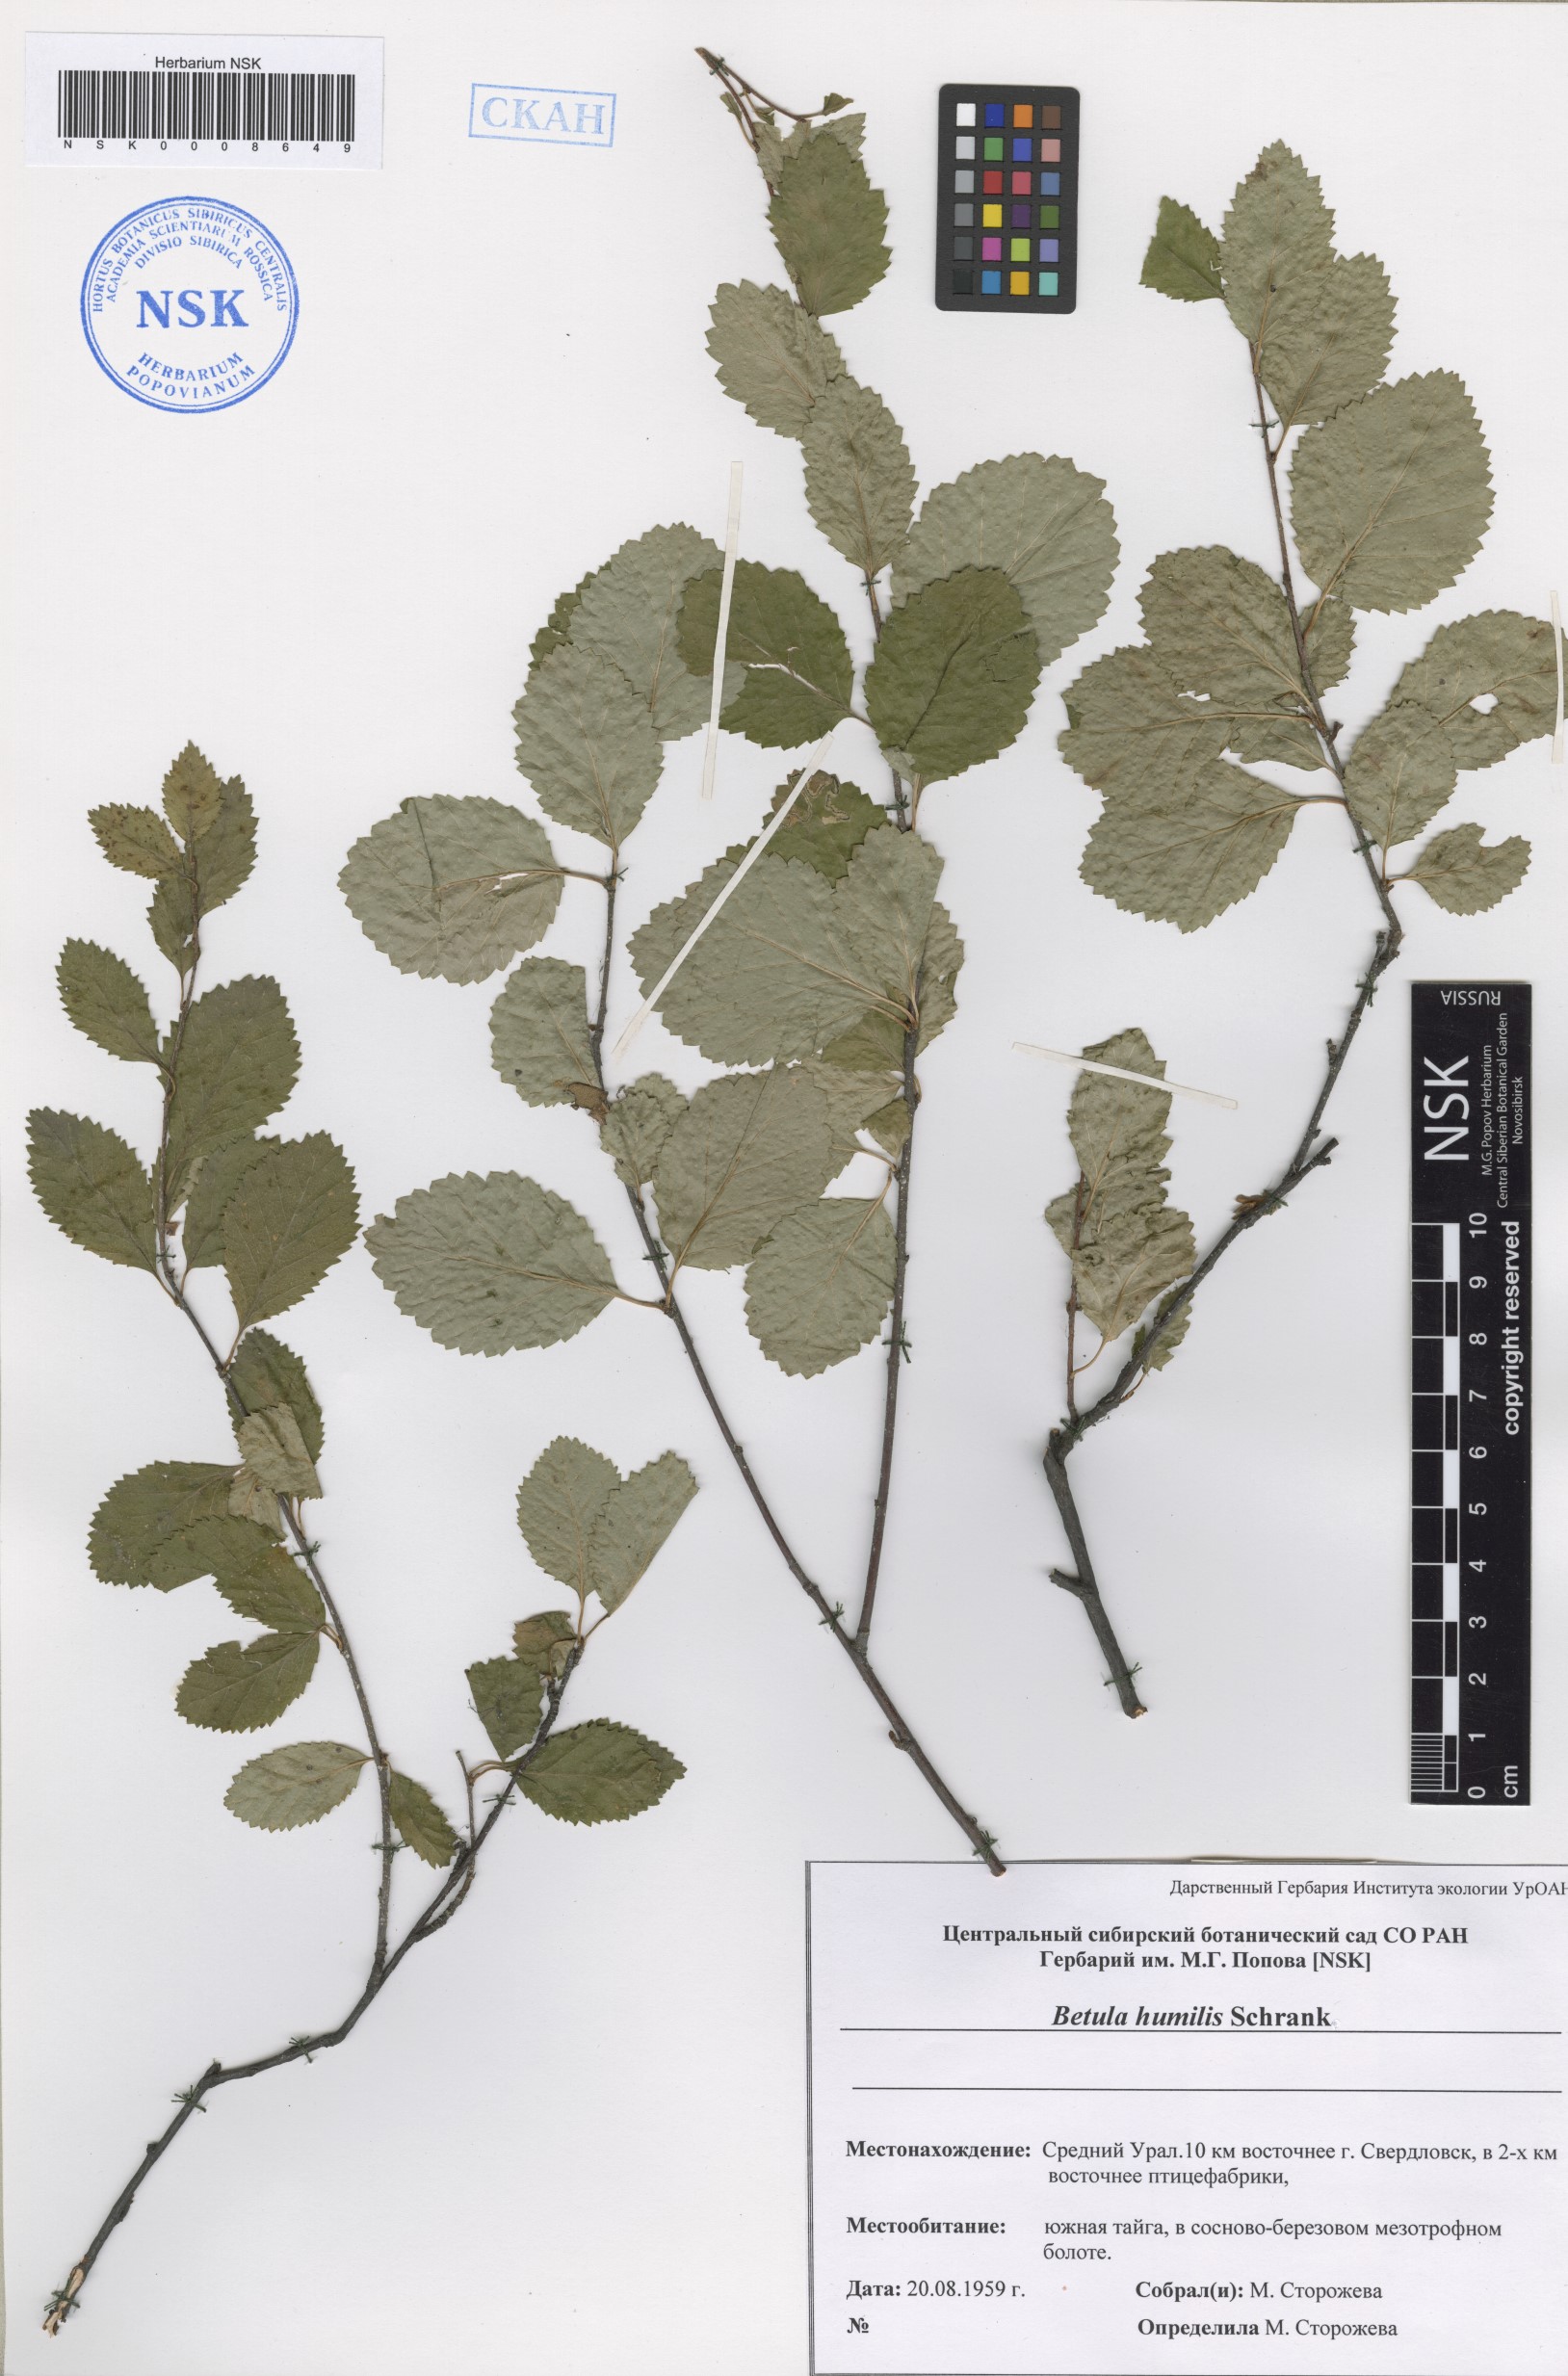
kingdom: Plantae
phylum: Tracheophyta
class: Magnoliopsida
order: Fagales
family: Betulaceae
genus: Betula
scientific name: Betula humilis
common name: Shrubby birch
